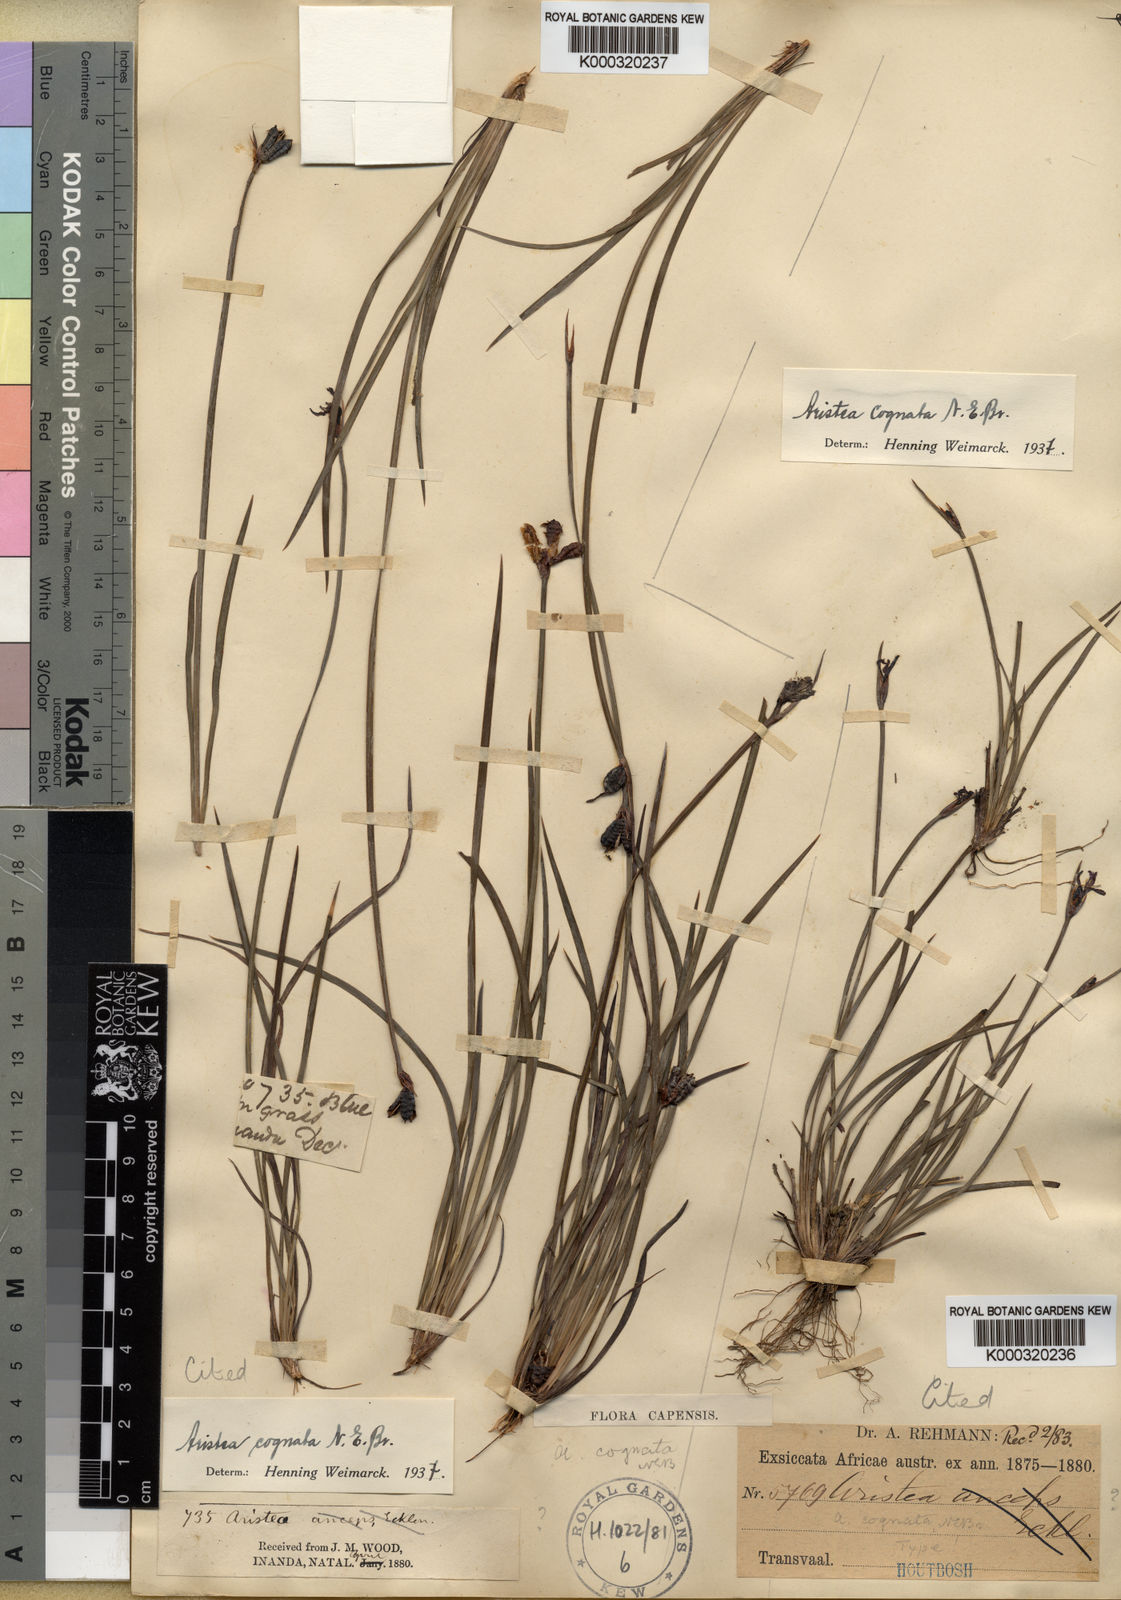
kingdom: Plantae
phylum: Tracheophyta
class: Liliopsida
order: Asparagales
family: Iridaceae
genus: Aristea
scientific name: Aristea abyssinica
